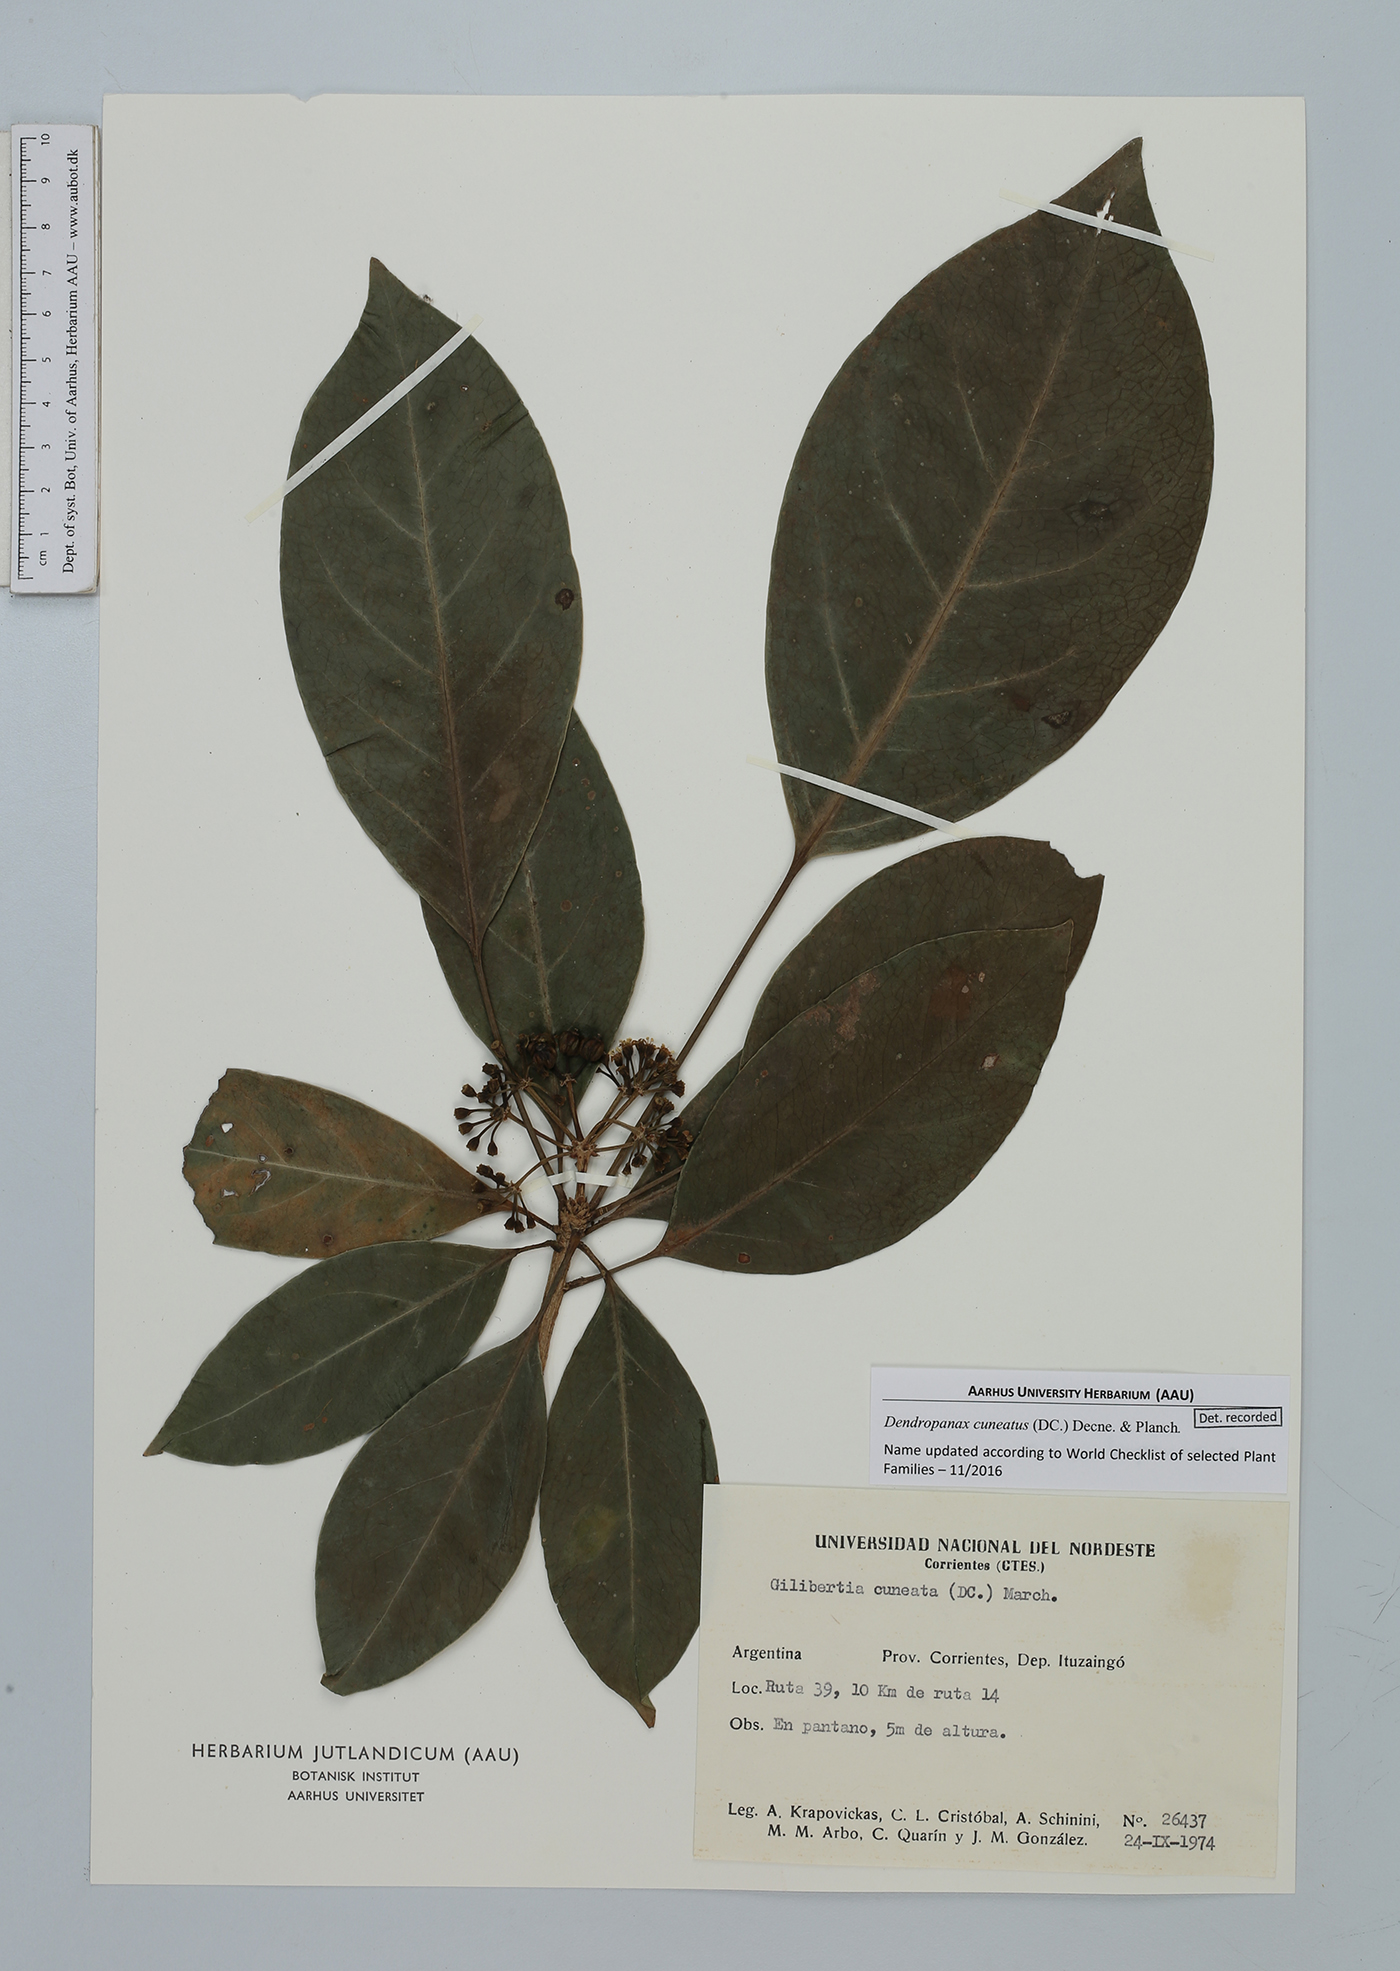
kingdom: Plantae
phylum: Tracheophyta
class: Magnoliopsida
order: Apiales
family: Araliaceae
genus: Dendropanax
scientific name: Dendropanax cuneatus
